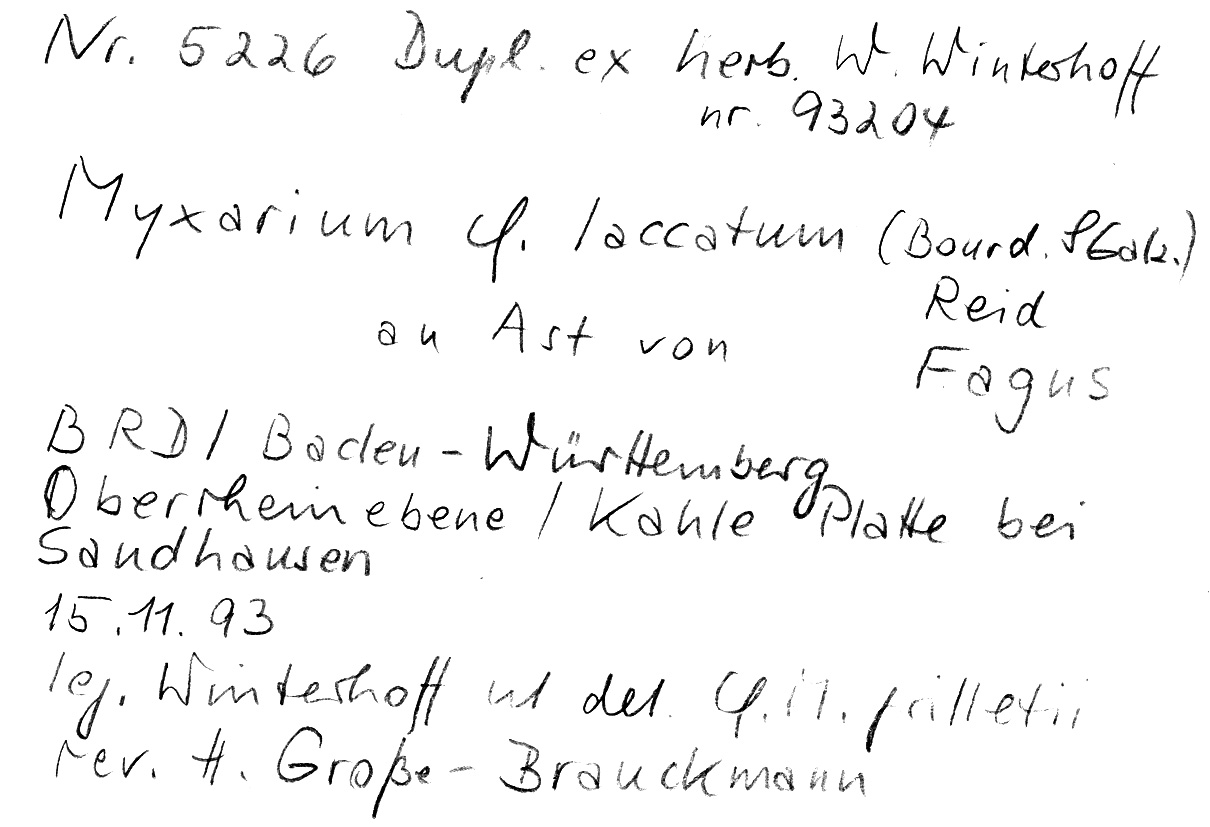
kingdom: Plantae
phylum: Tracheophyta
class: Magnoliopsida
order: Fagales
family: Fagaceae
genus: Fagus
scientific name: Fagus sylvatica
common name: Beech
